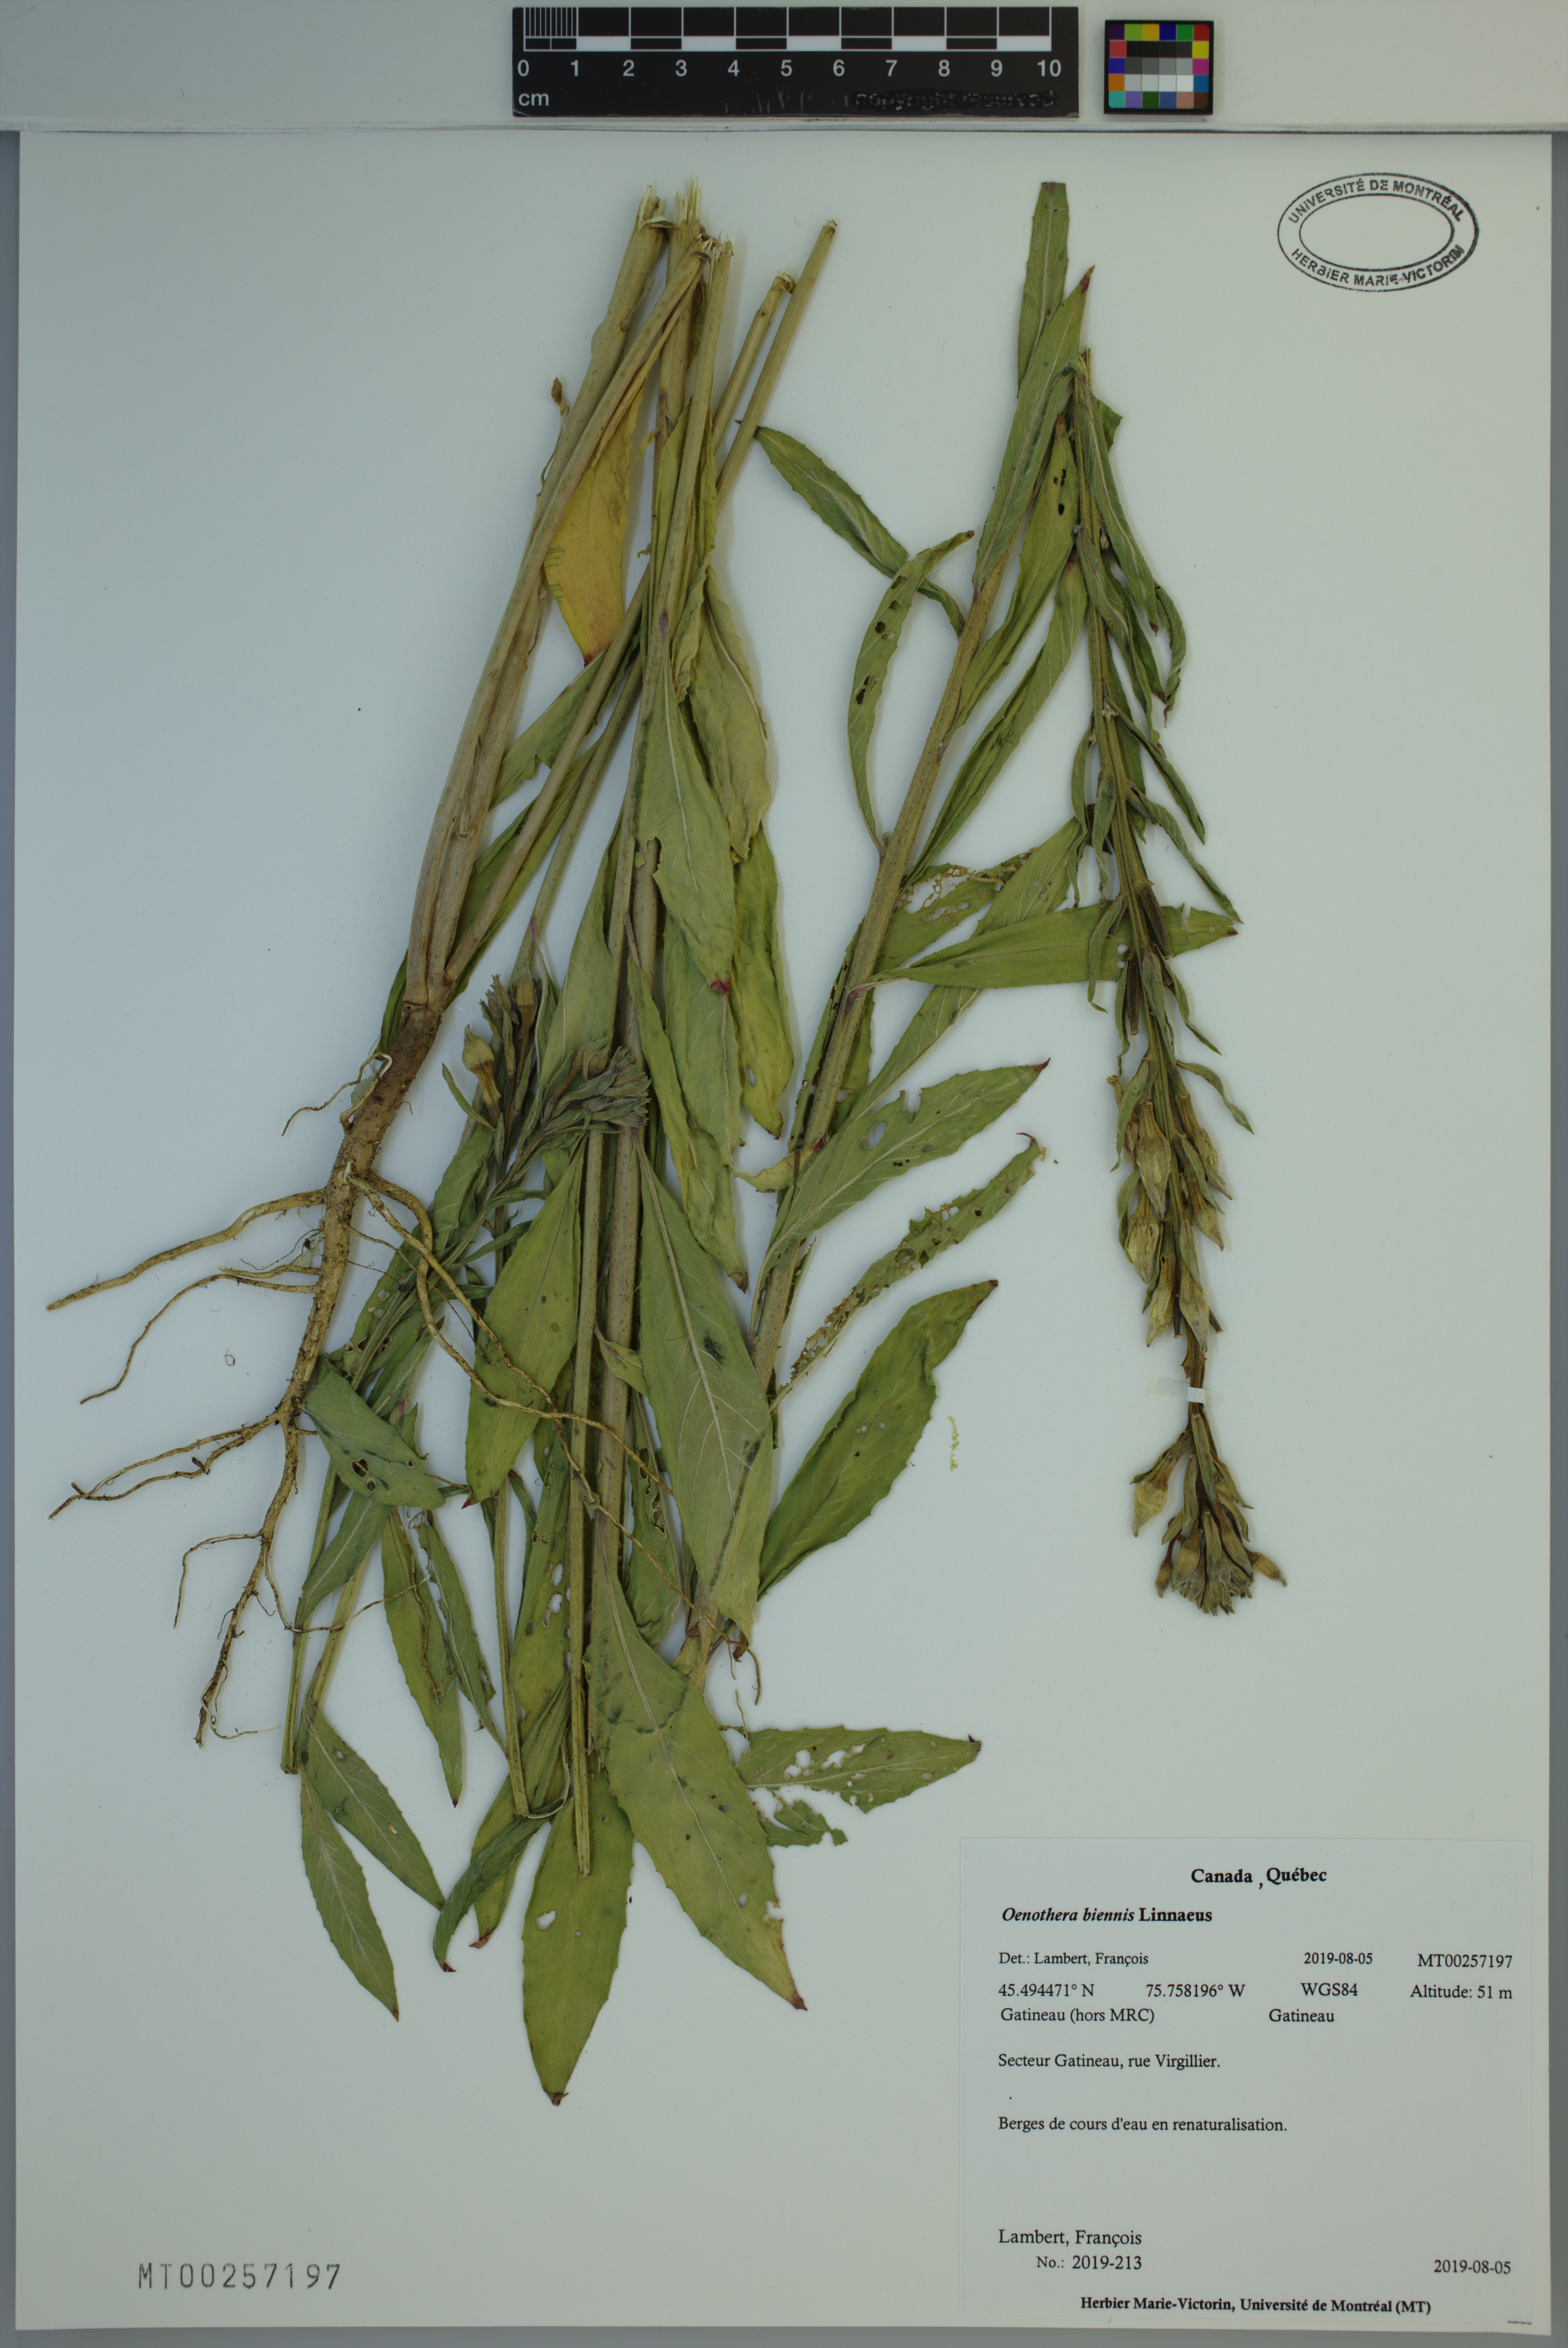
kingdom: Plantae
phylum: Tracheophyta
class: Magnoliopsida
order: Myrtales
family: Onagraceae
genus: Oenothera
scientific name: Oenothera biennis
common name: Common evening-primrose
